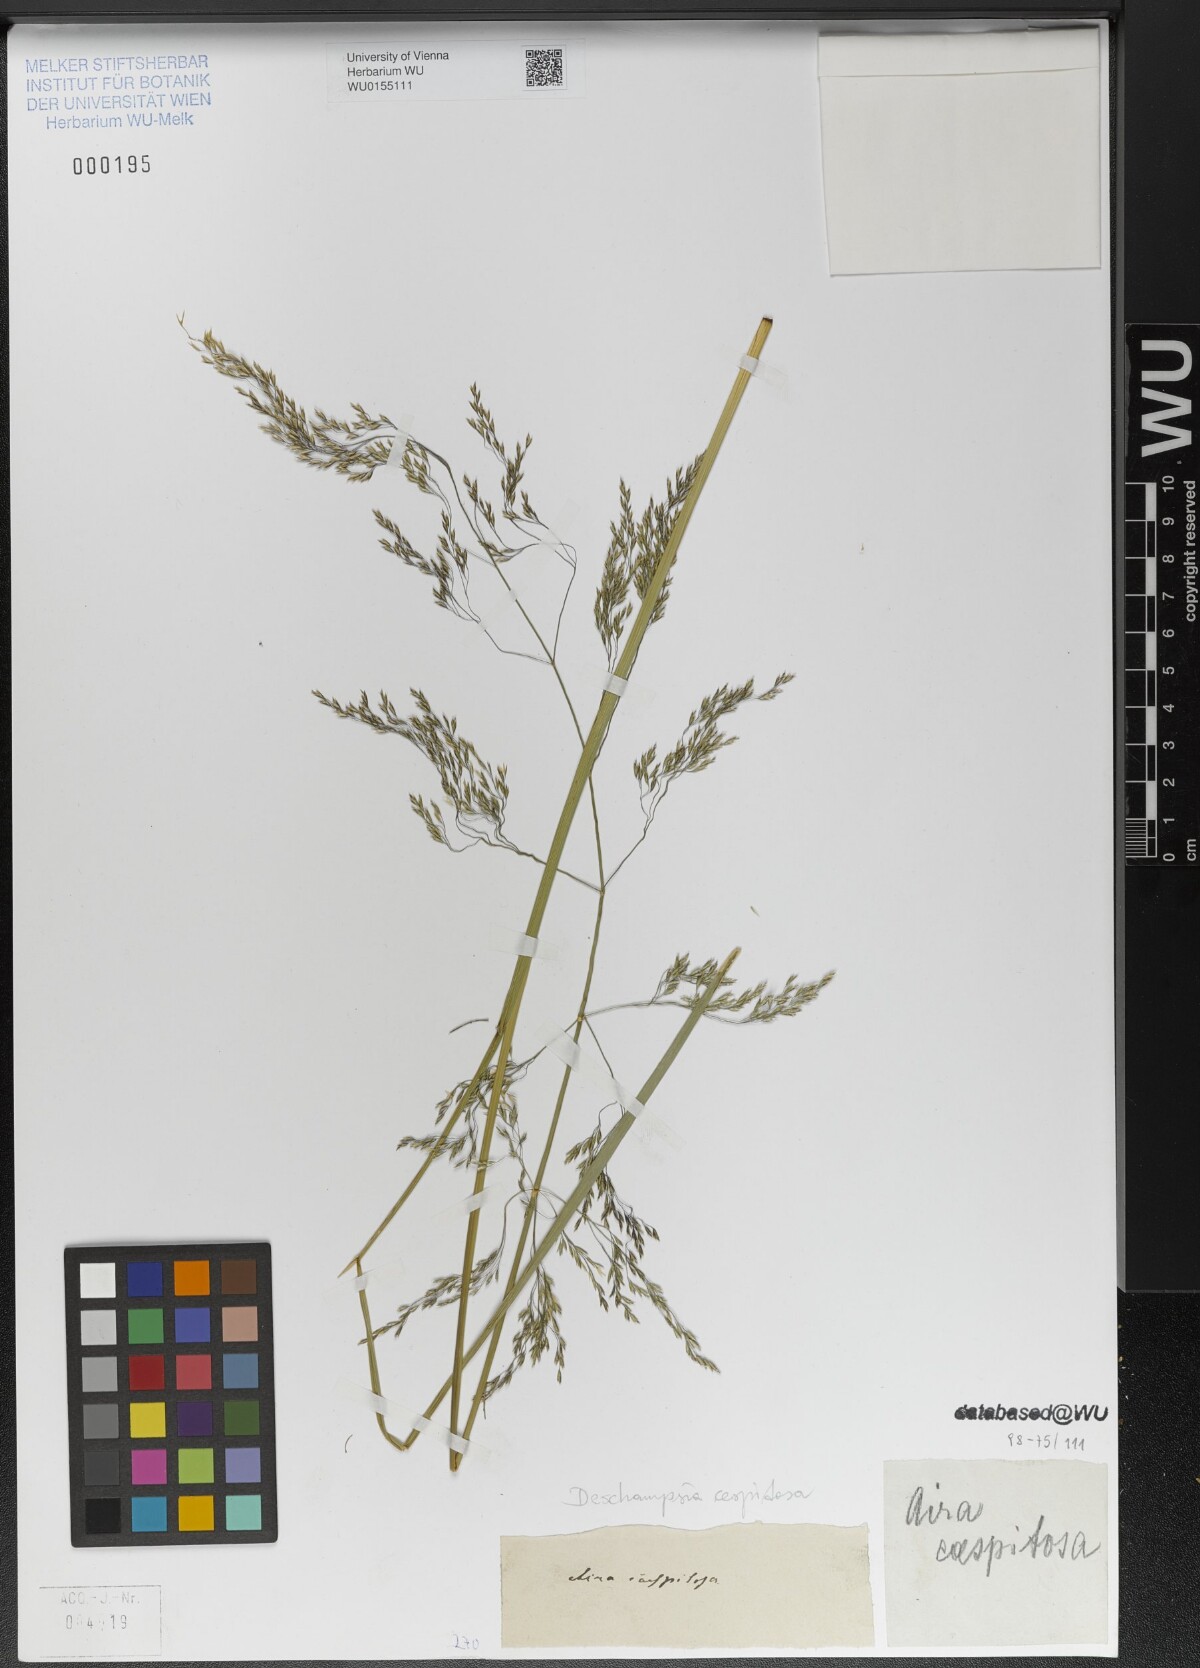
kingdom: Plantae
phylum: Tracheophyta
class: Liliopsida
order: Poales
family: Poaceae
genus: Deschampsia
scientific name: Deschampsia cespitosa
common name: Tufted hair-grass
